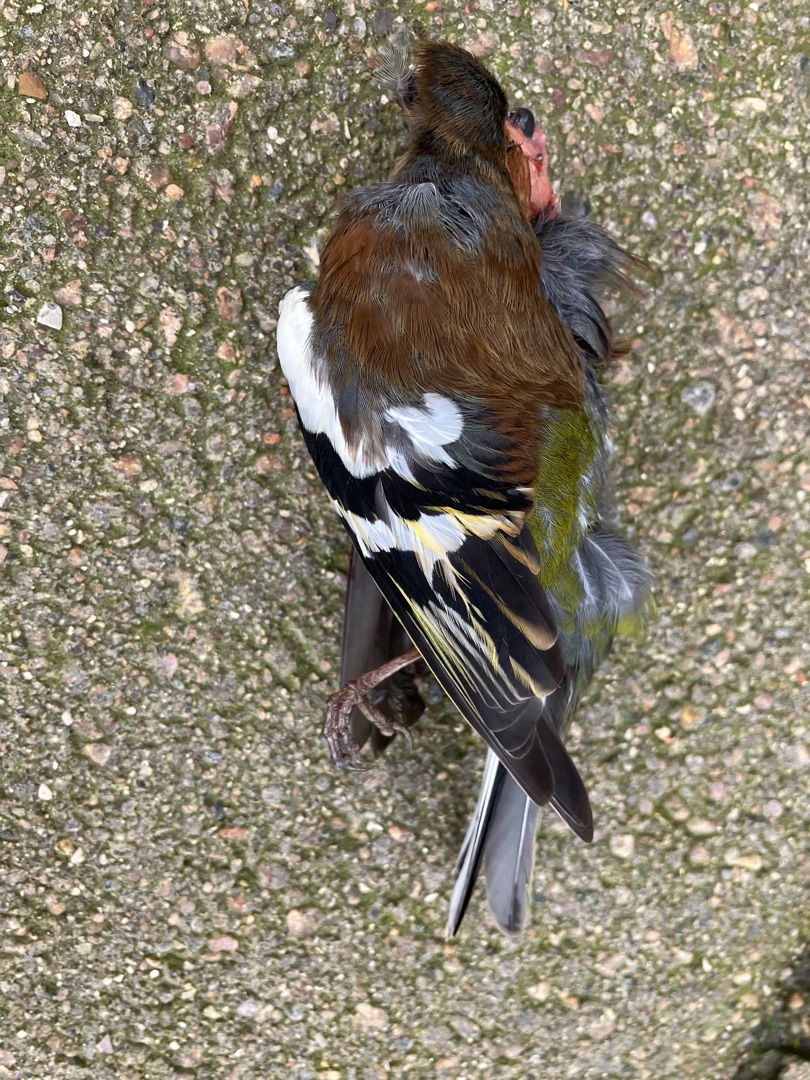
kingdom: Animalia
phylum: Chordata
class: Aves
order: Passeriformes
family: Fringillidae
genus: Fringilla
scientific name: Fringilla coelebs
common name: Bogfinke
